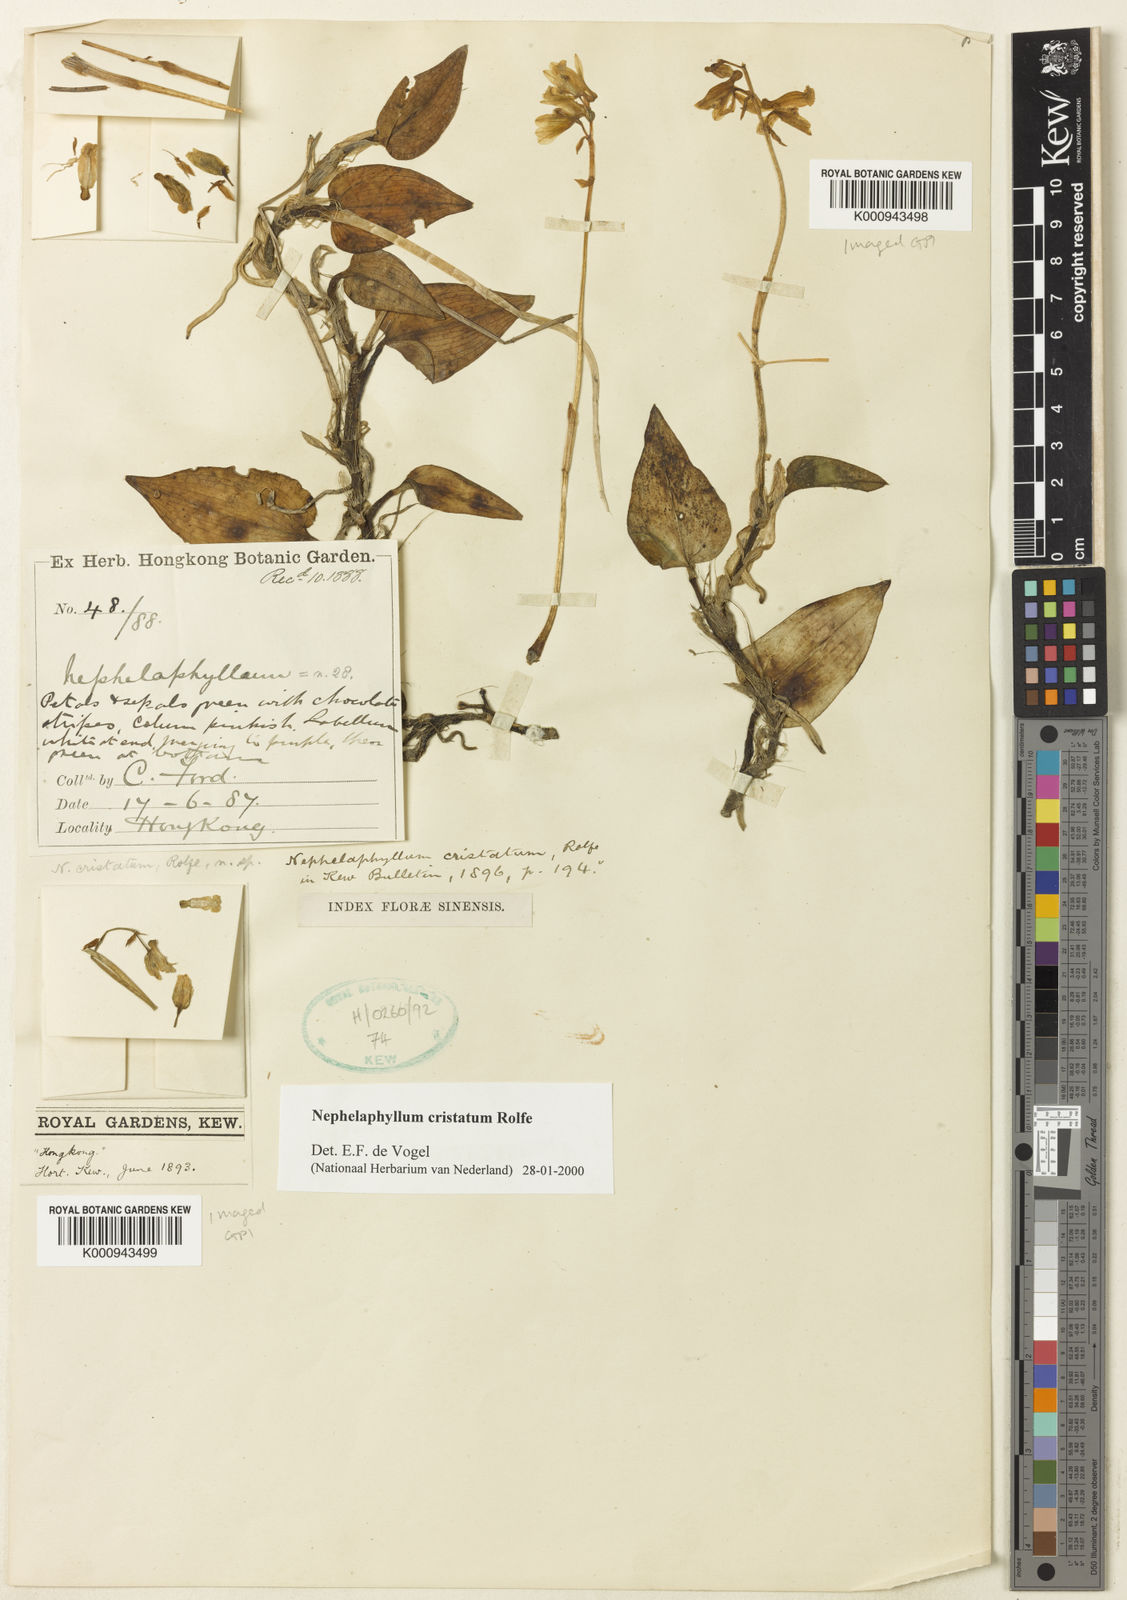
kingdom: Plantae
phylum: Tracheophyta
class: Liliopsida
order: Asparagales
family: Orchidaceae
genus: Nephelaphyllum
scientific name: Nephelaphyllum tenuiflorum
